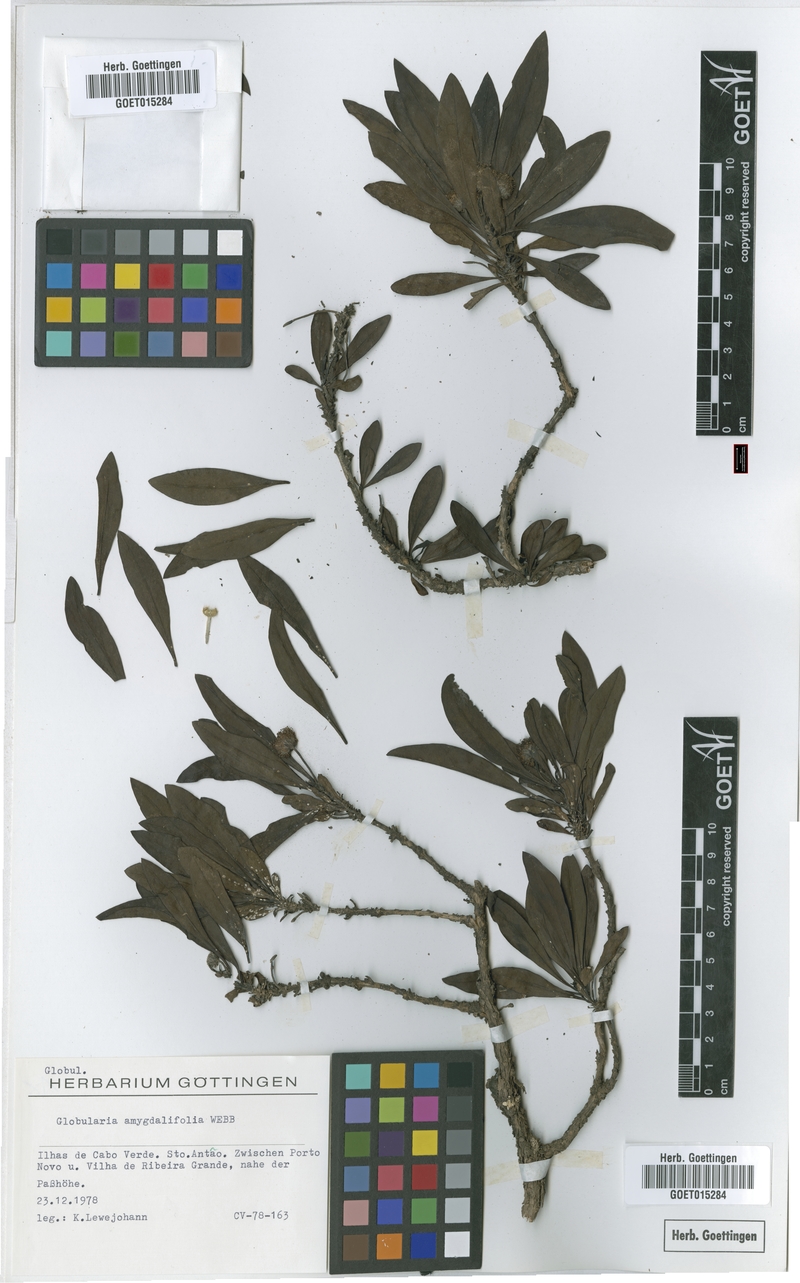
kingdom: Plantae
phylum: Tracheophyta
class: Magnoliopsida
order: Lamiales
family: Plantaginaceae
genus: Globularia
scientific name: Globularia amygdalifolia
